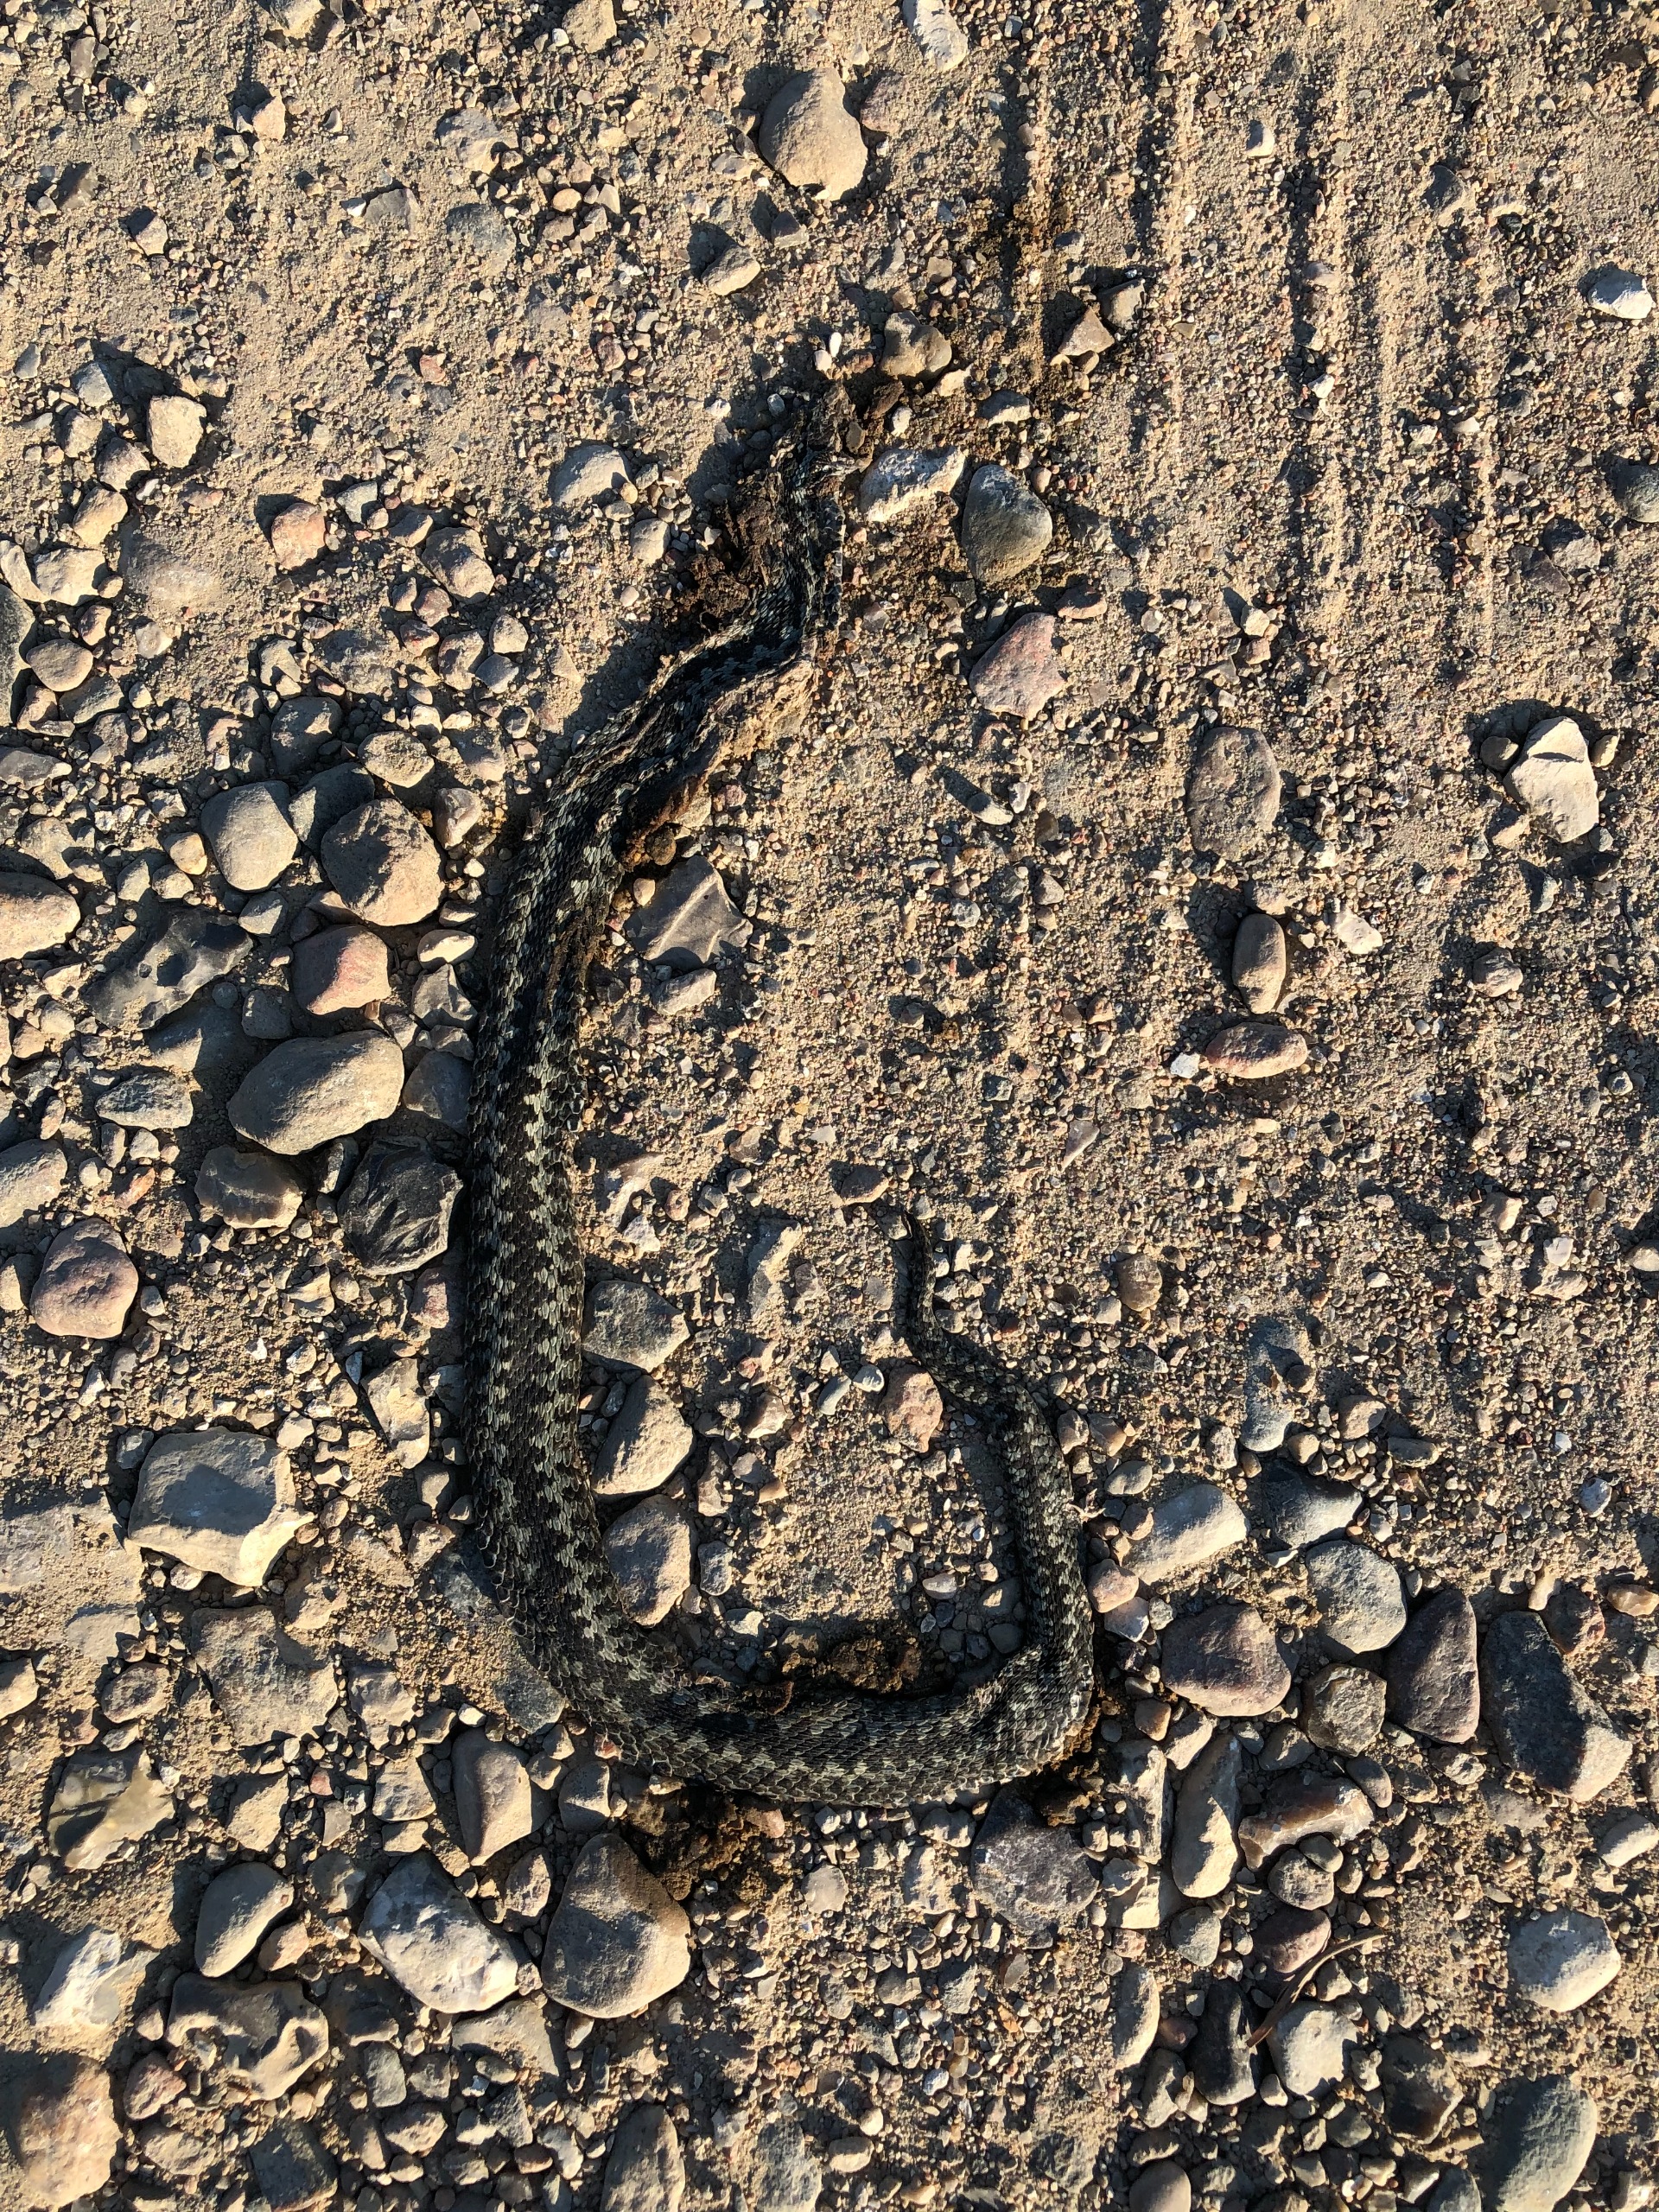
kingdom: Animalia
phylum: Chordata
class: Squamata
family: Viperidae
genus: Vipera
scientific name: Vipera berus
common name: Hugorm
